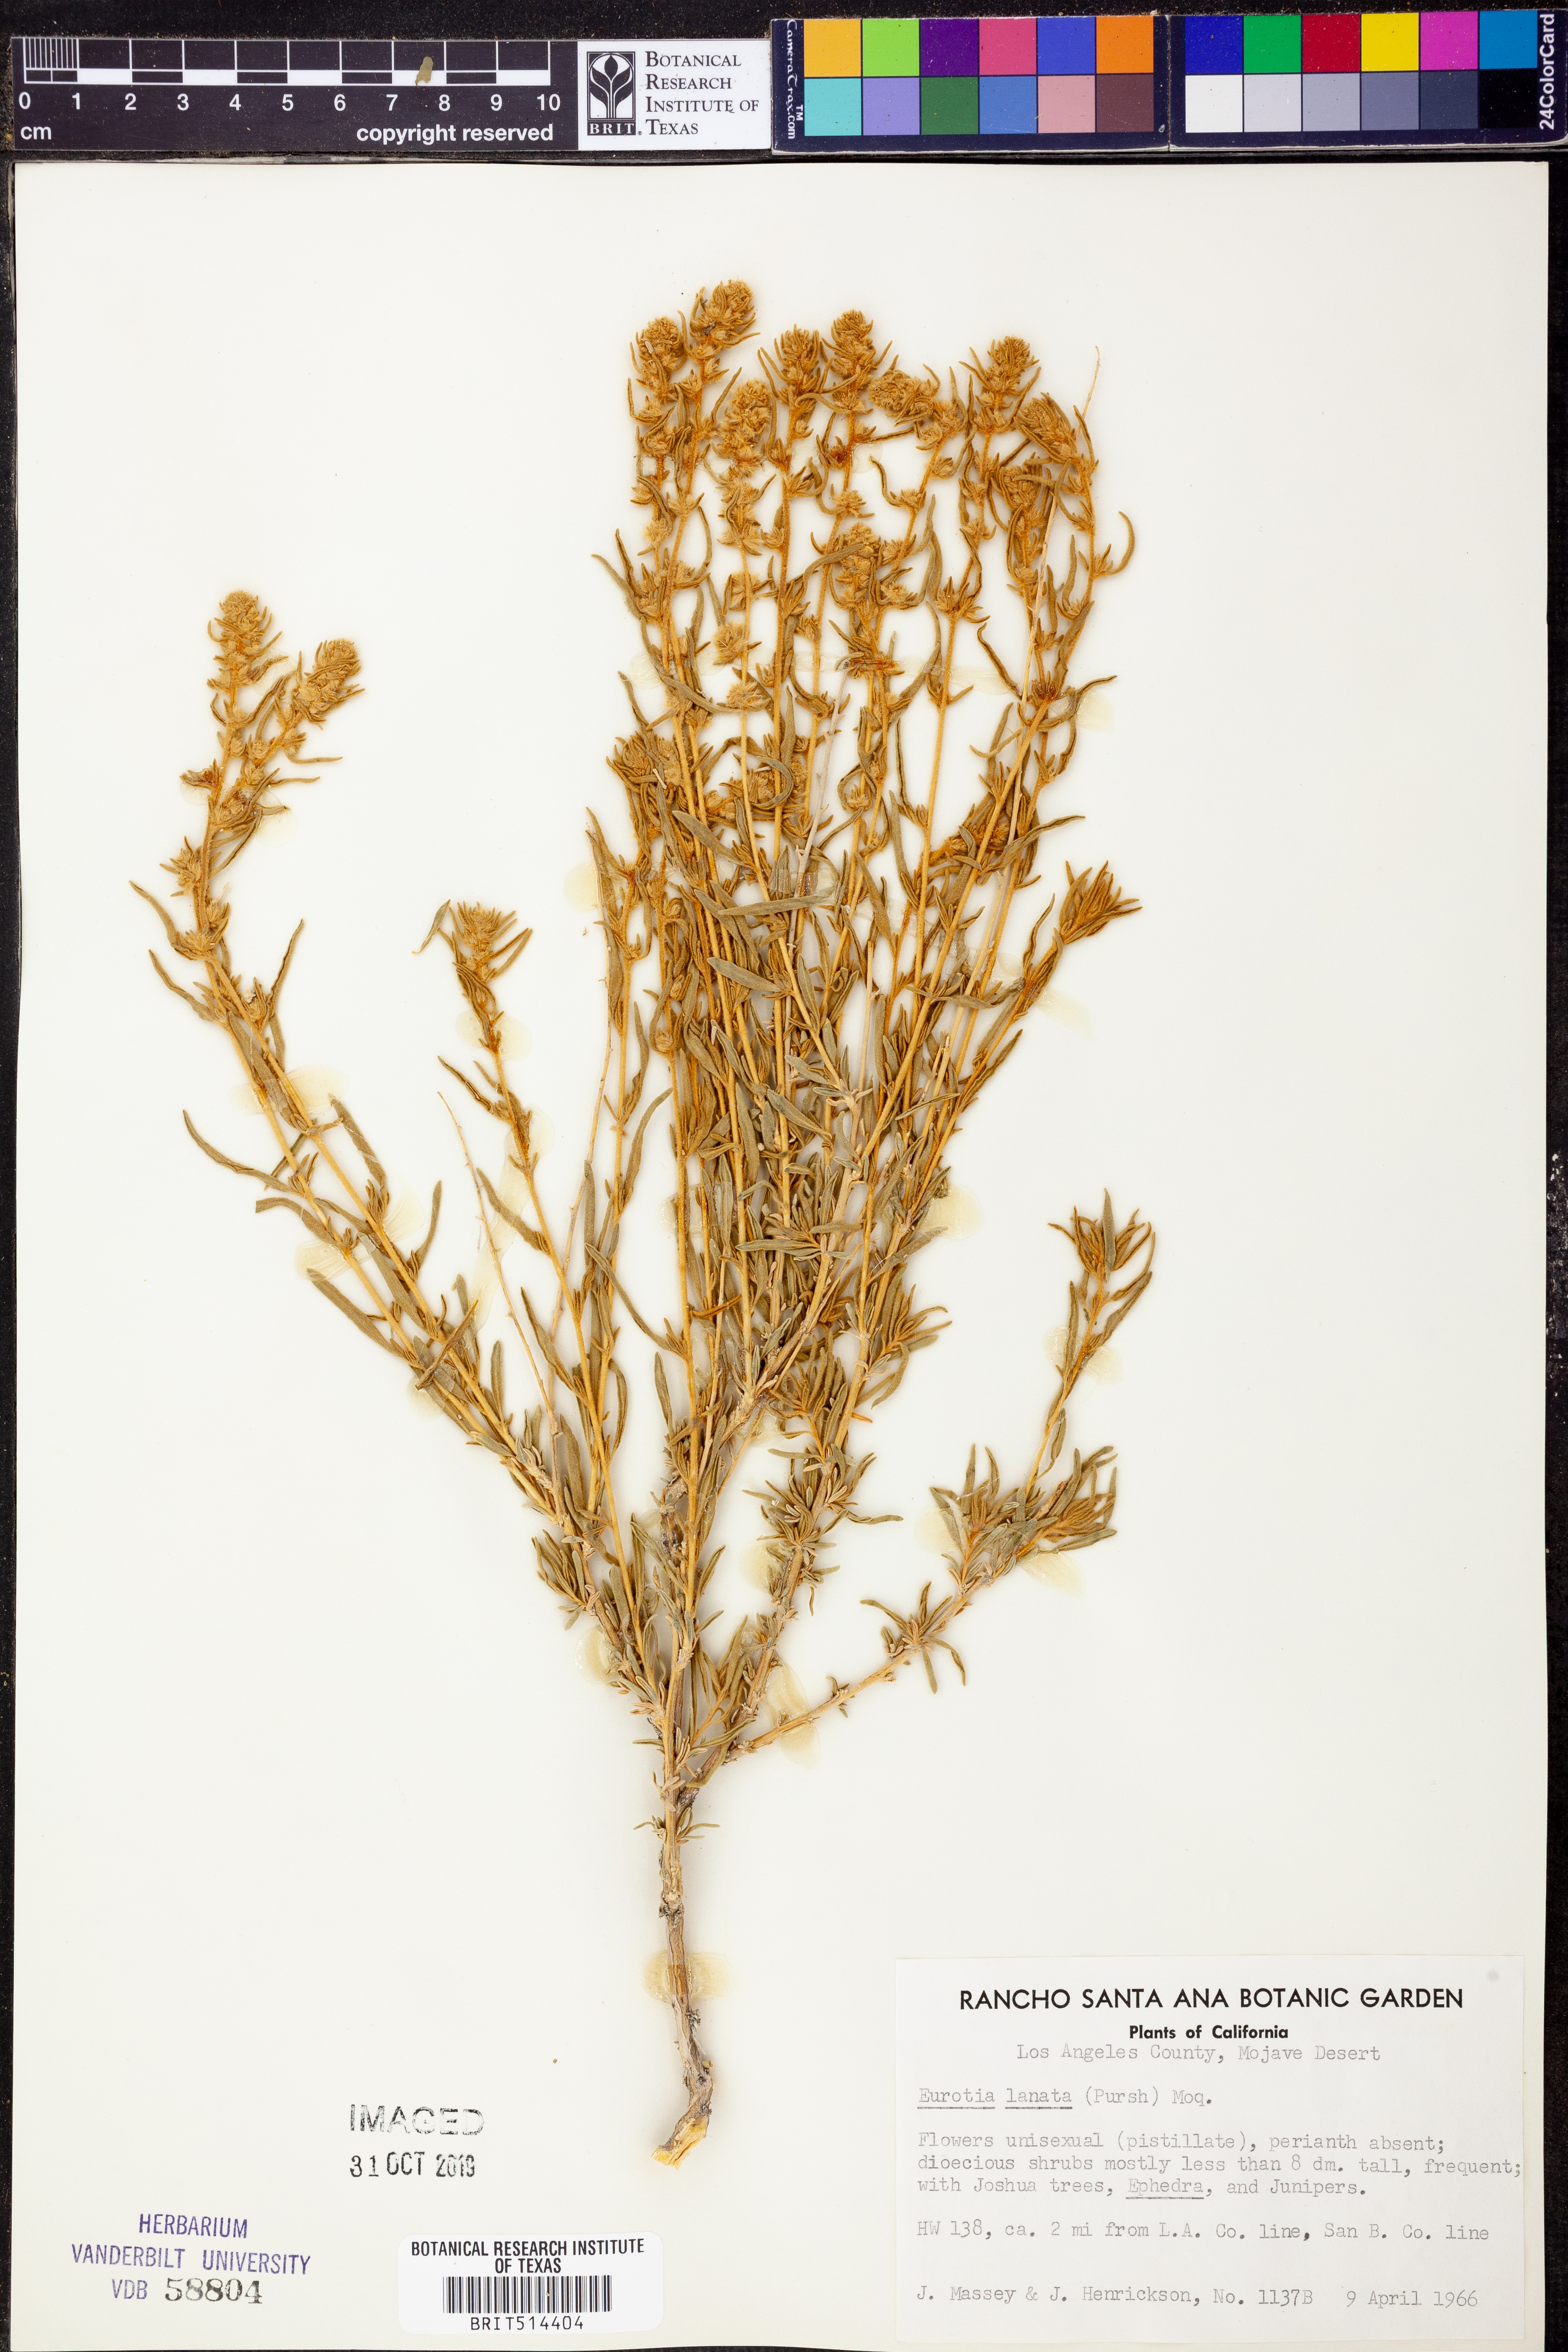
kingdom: Plantae
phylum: Tracheophyta
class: Magnoliopsida
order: Caryophyllales
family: Amaranthaceae
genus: Krascheninnikovia
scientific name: Krascheninnikovia lanata
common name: Winterfat
